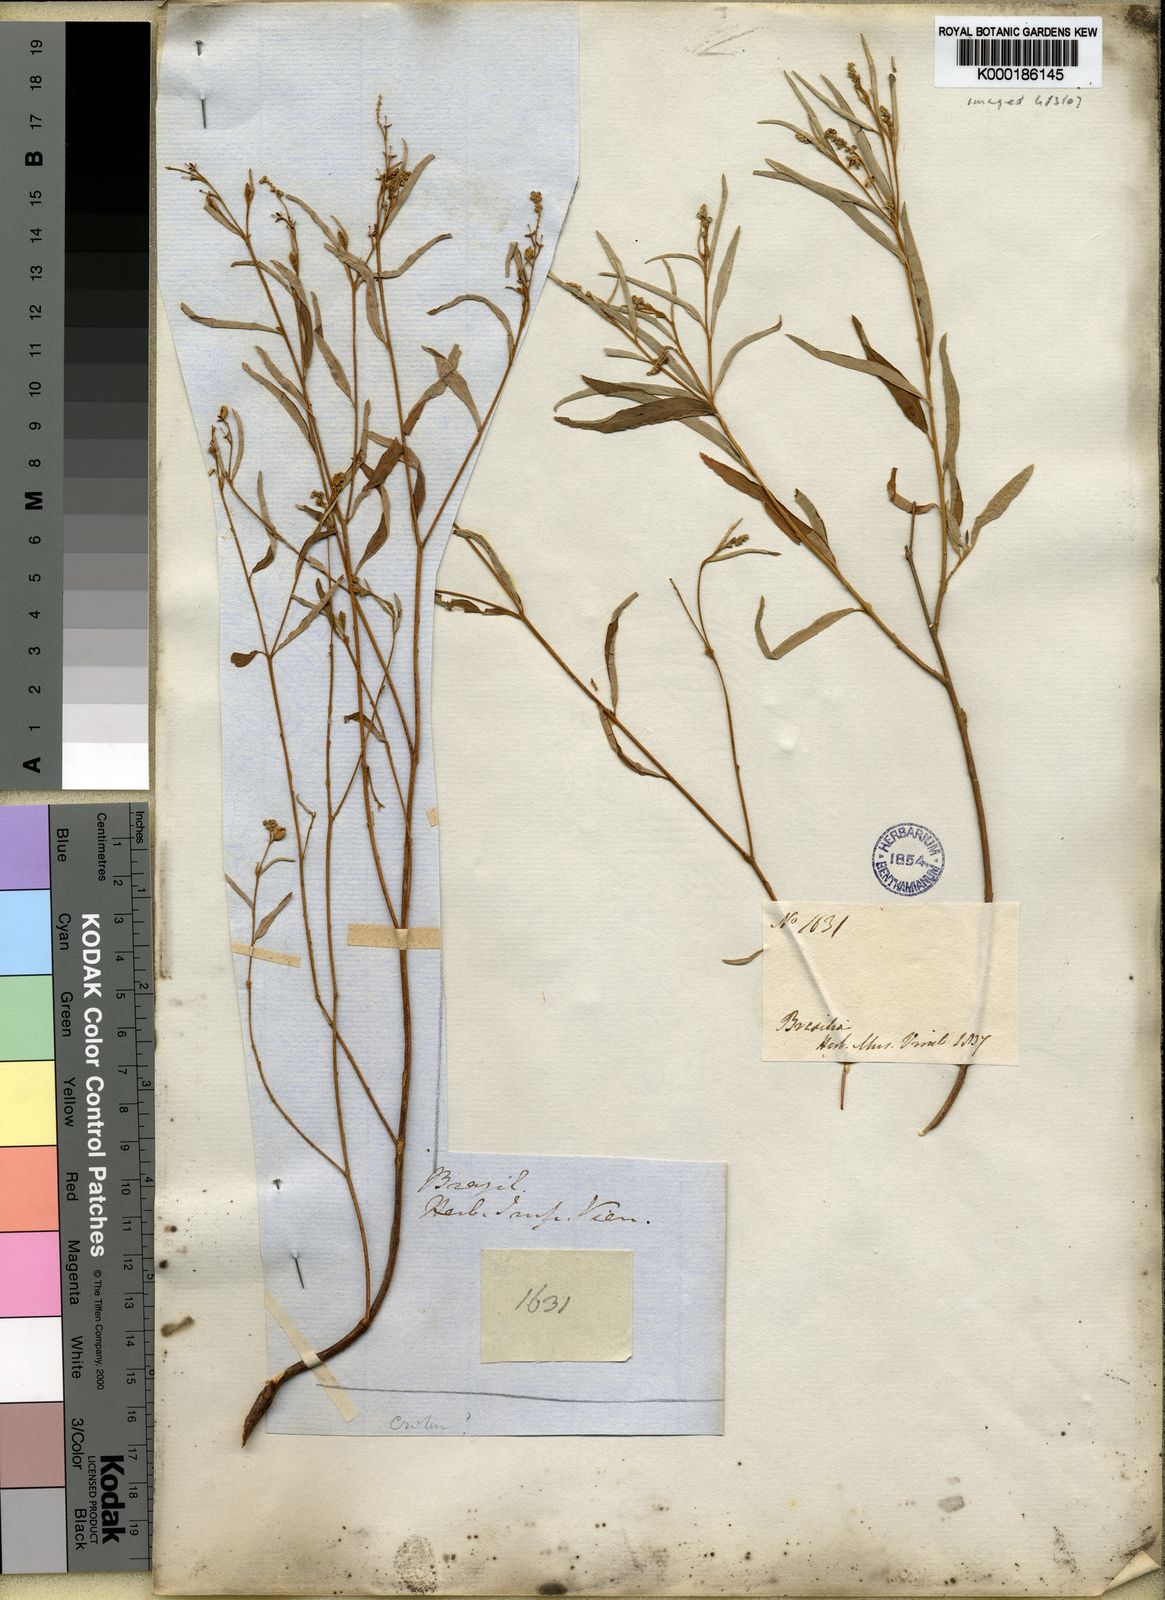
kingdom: Plantae
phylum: Tracheophyta
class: Magnoliopsida
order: Malpighiales
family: Euphorbiaceae
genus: Croton
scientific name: Croton
